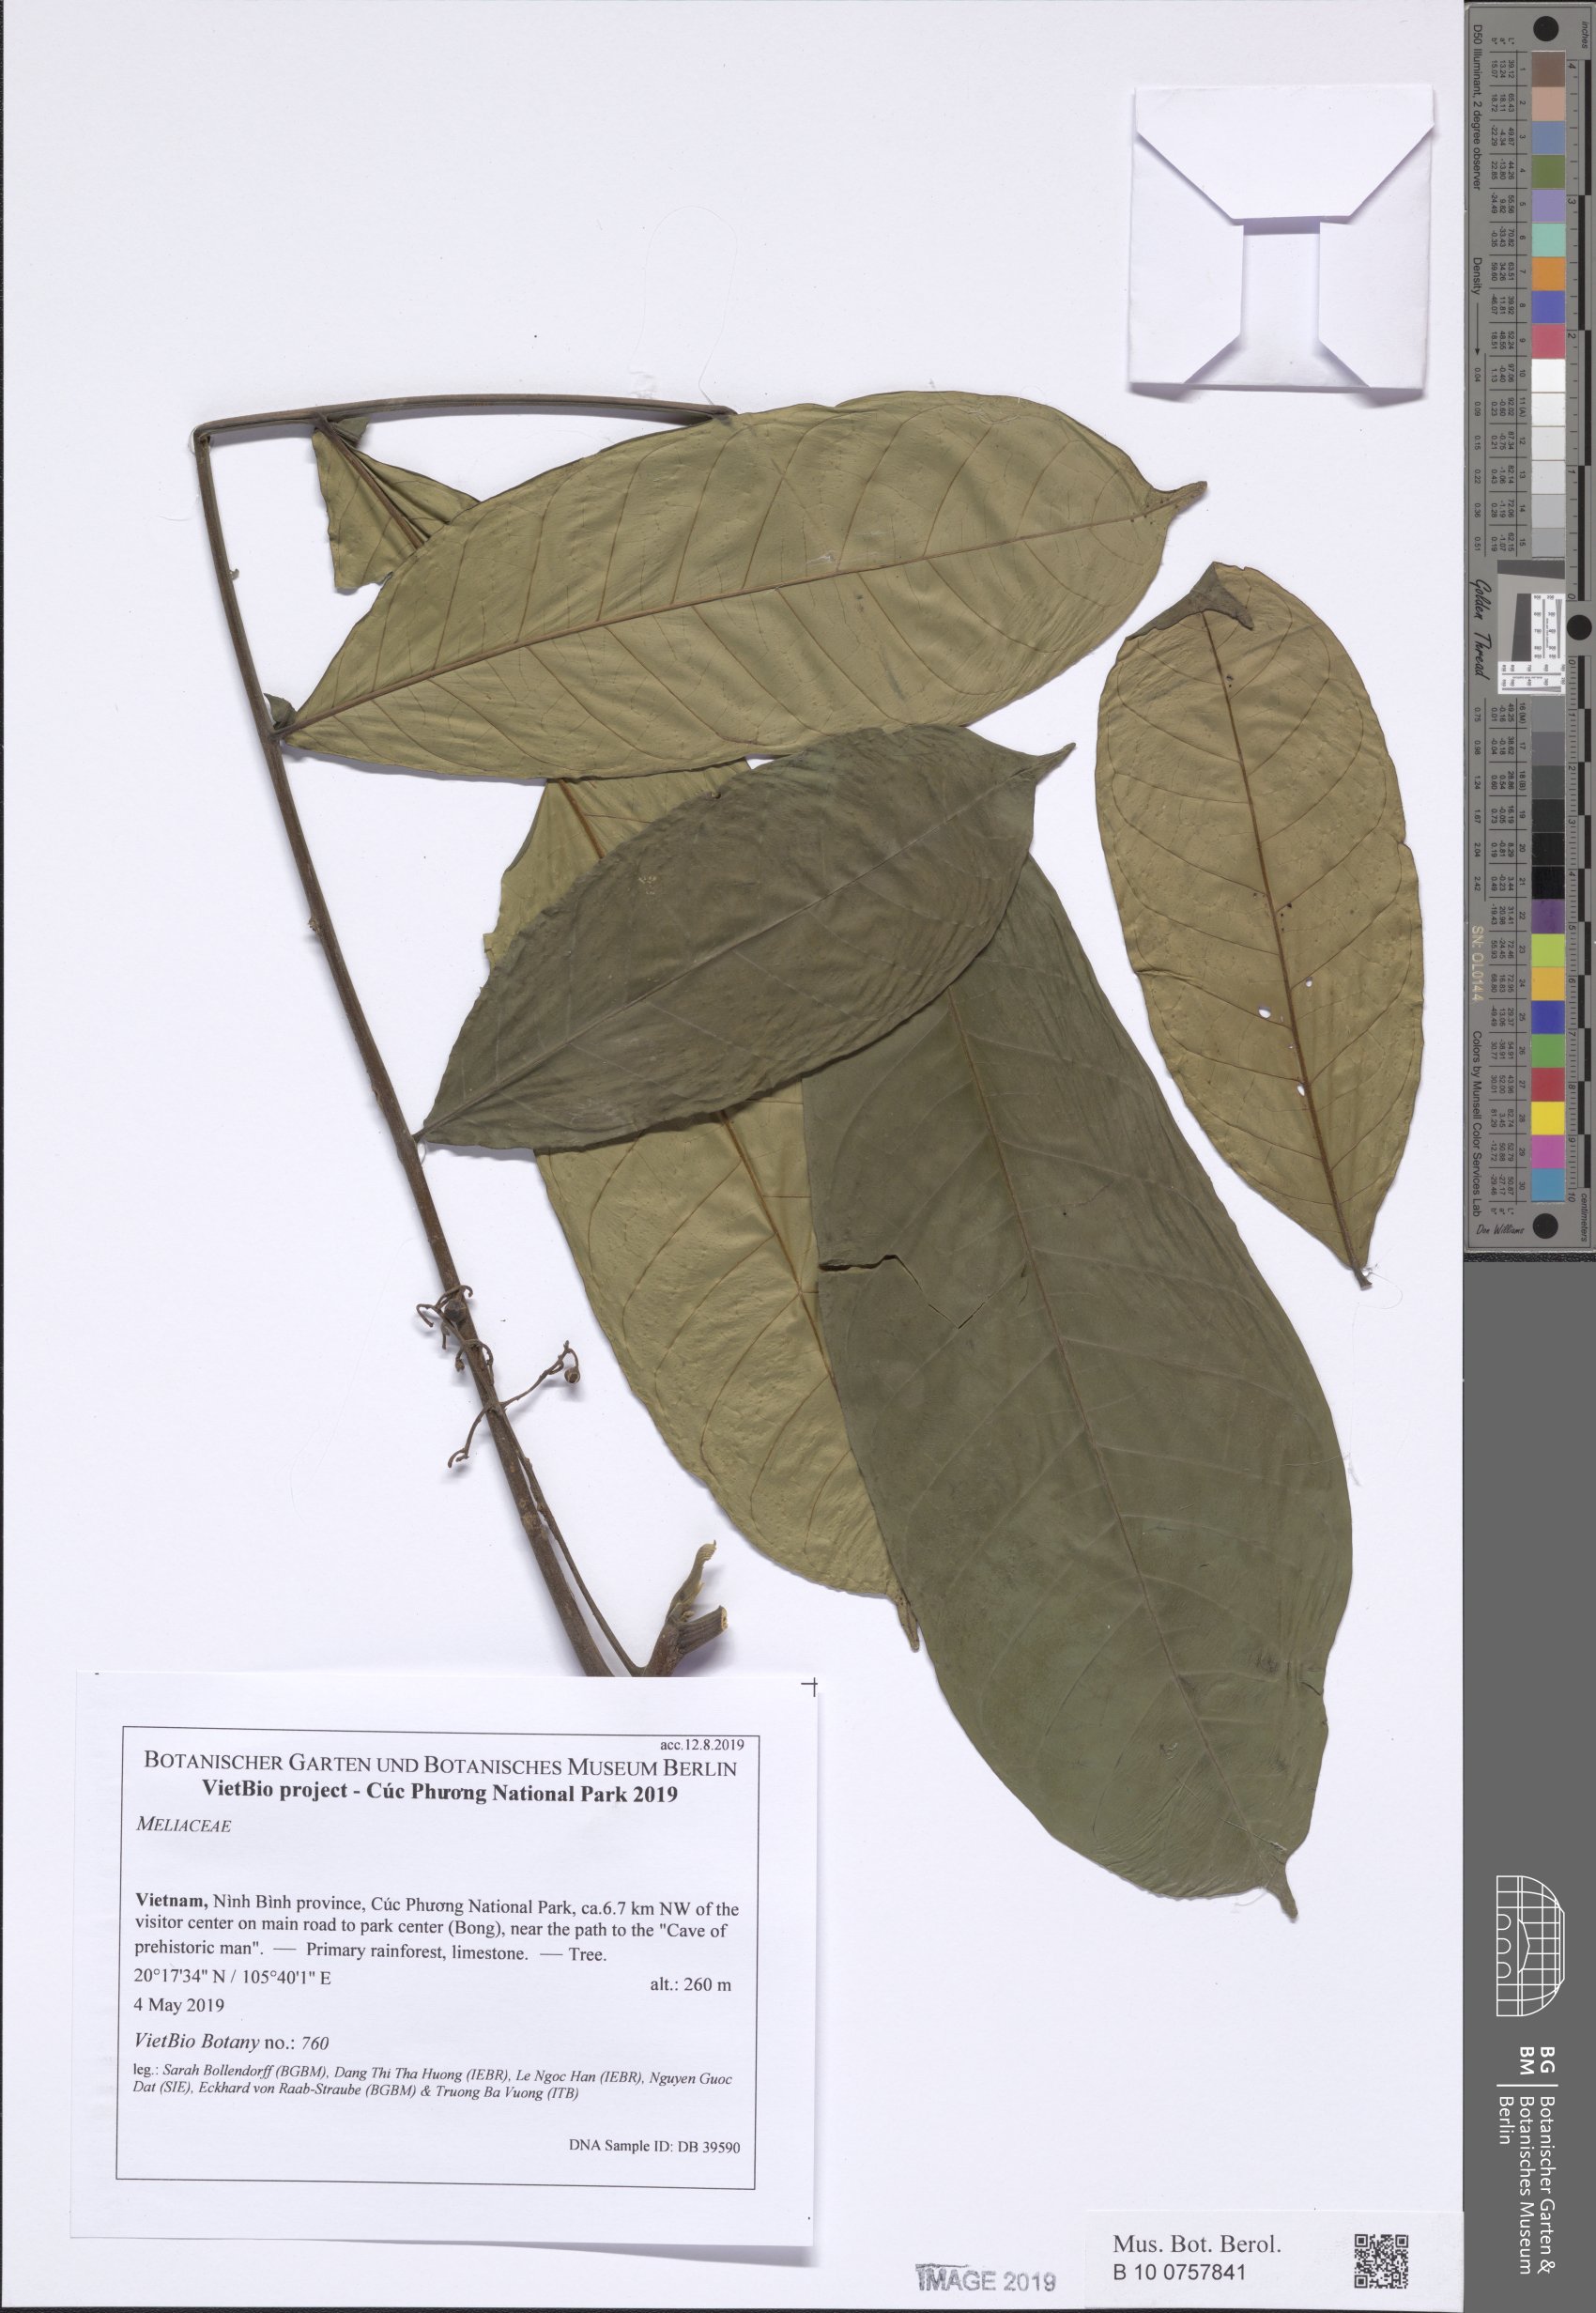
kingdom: Plantae
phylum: Tracheophyta
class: Magnoliopsida
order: Sapindales
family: Meliaceae
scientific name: Meliaceae
